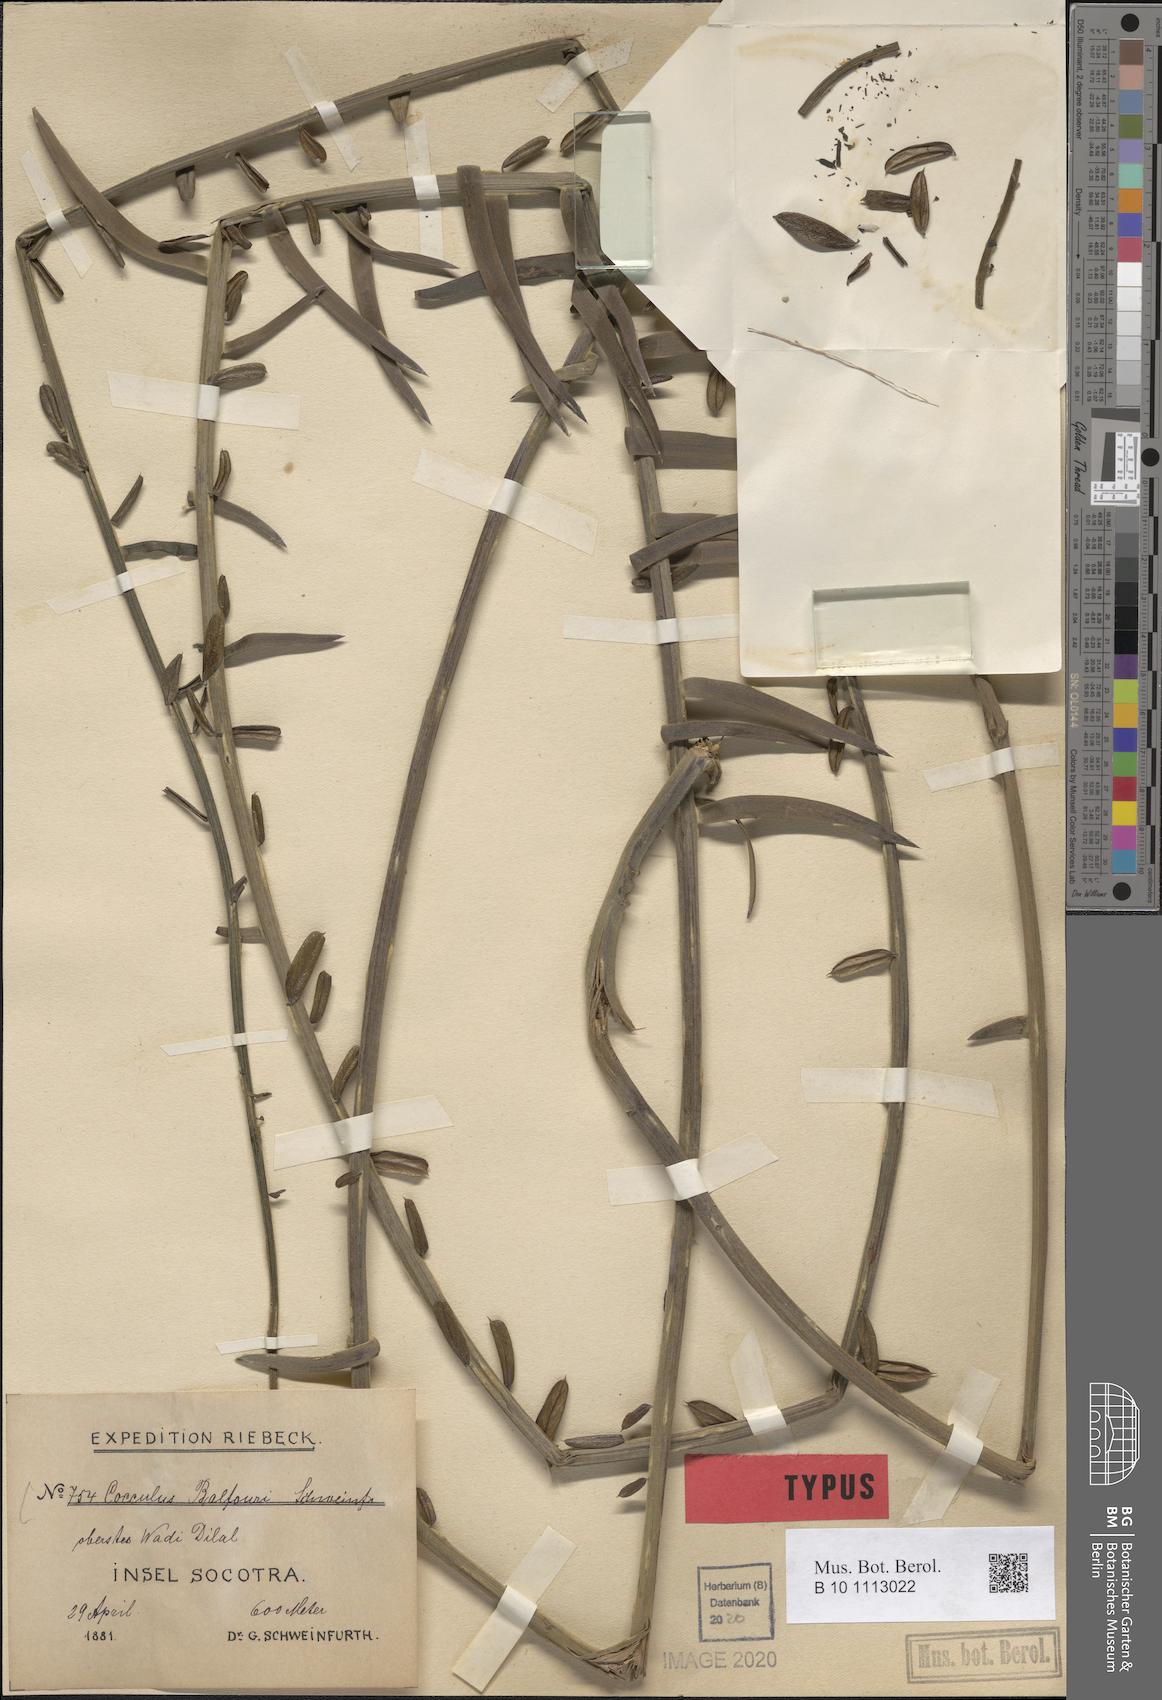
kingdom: Plantae
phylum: Tracheophyta
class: Magnoliopsida
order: Ranunculales
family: Menispermaceae
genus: Cocculus
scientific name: Cocculus balfourii
